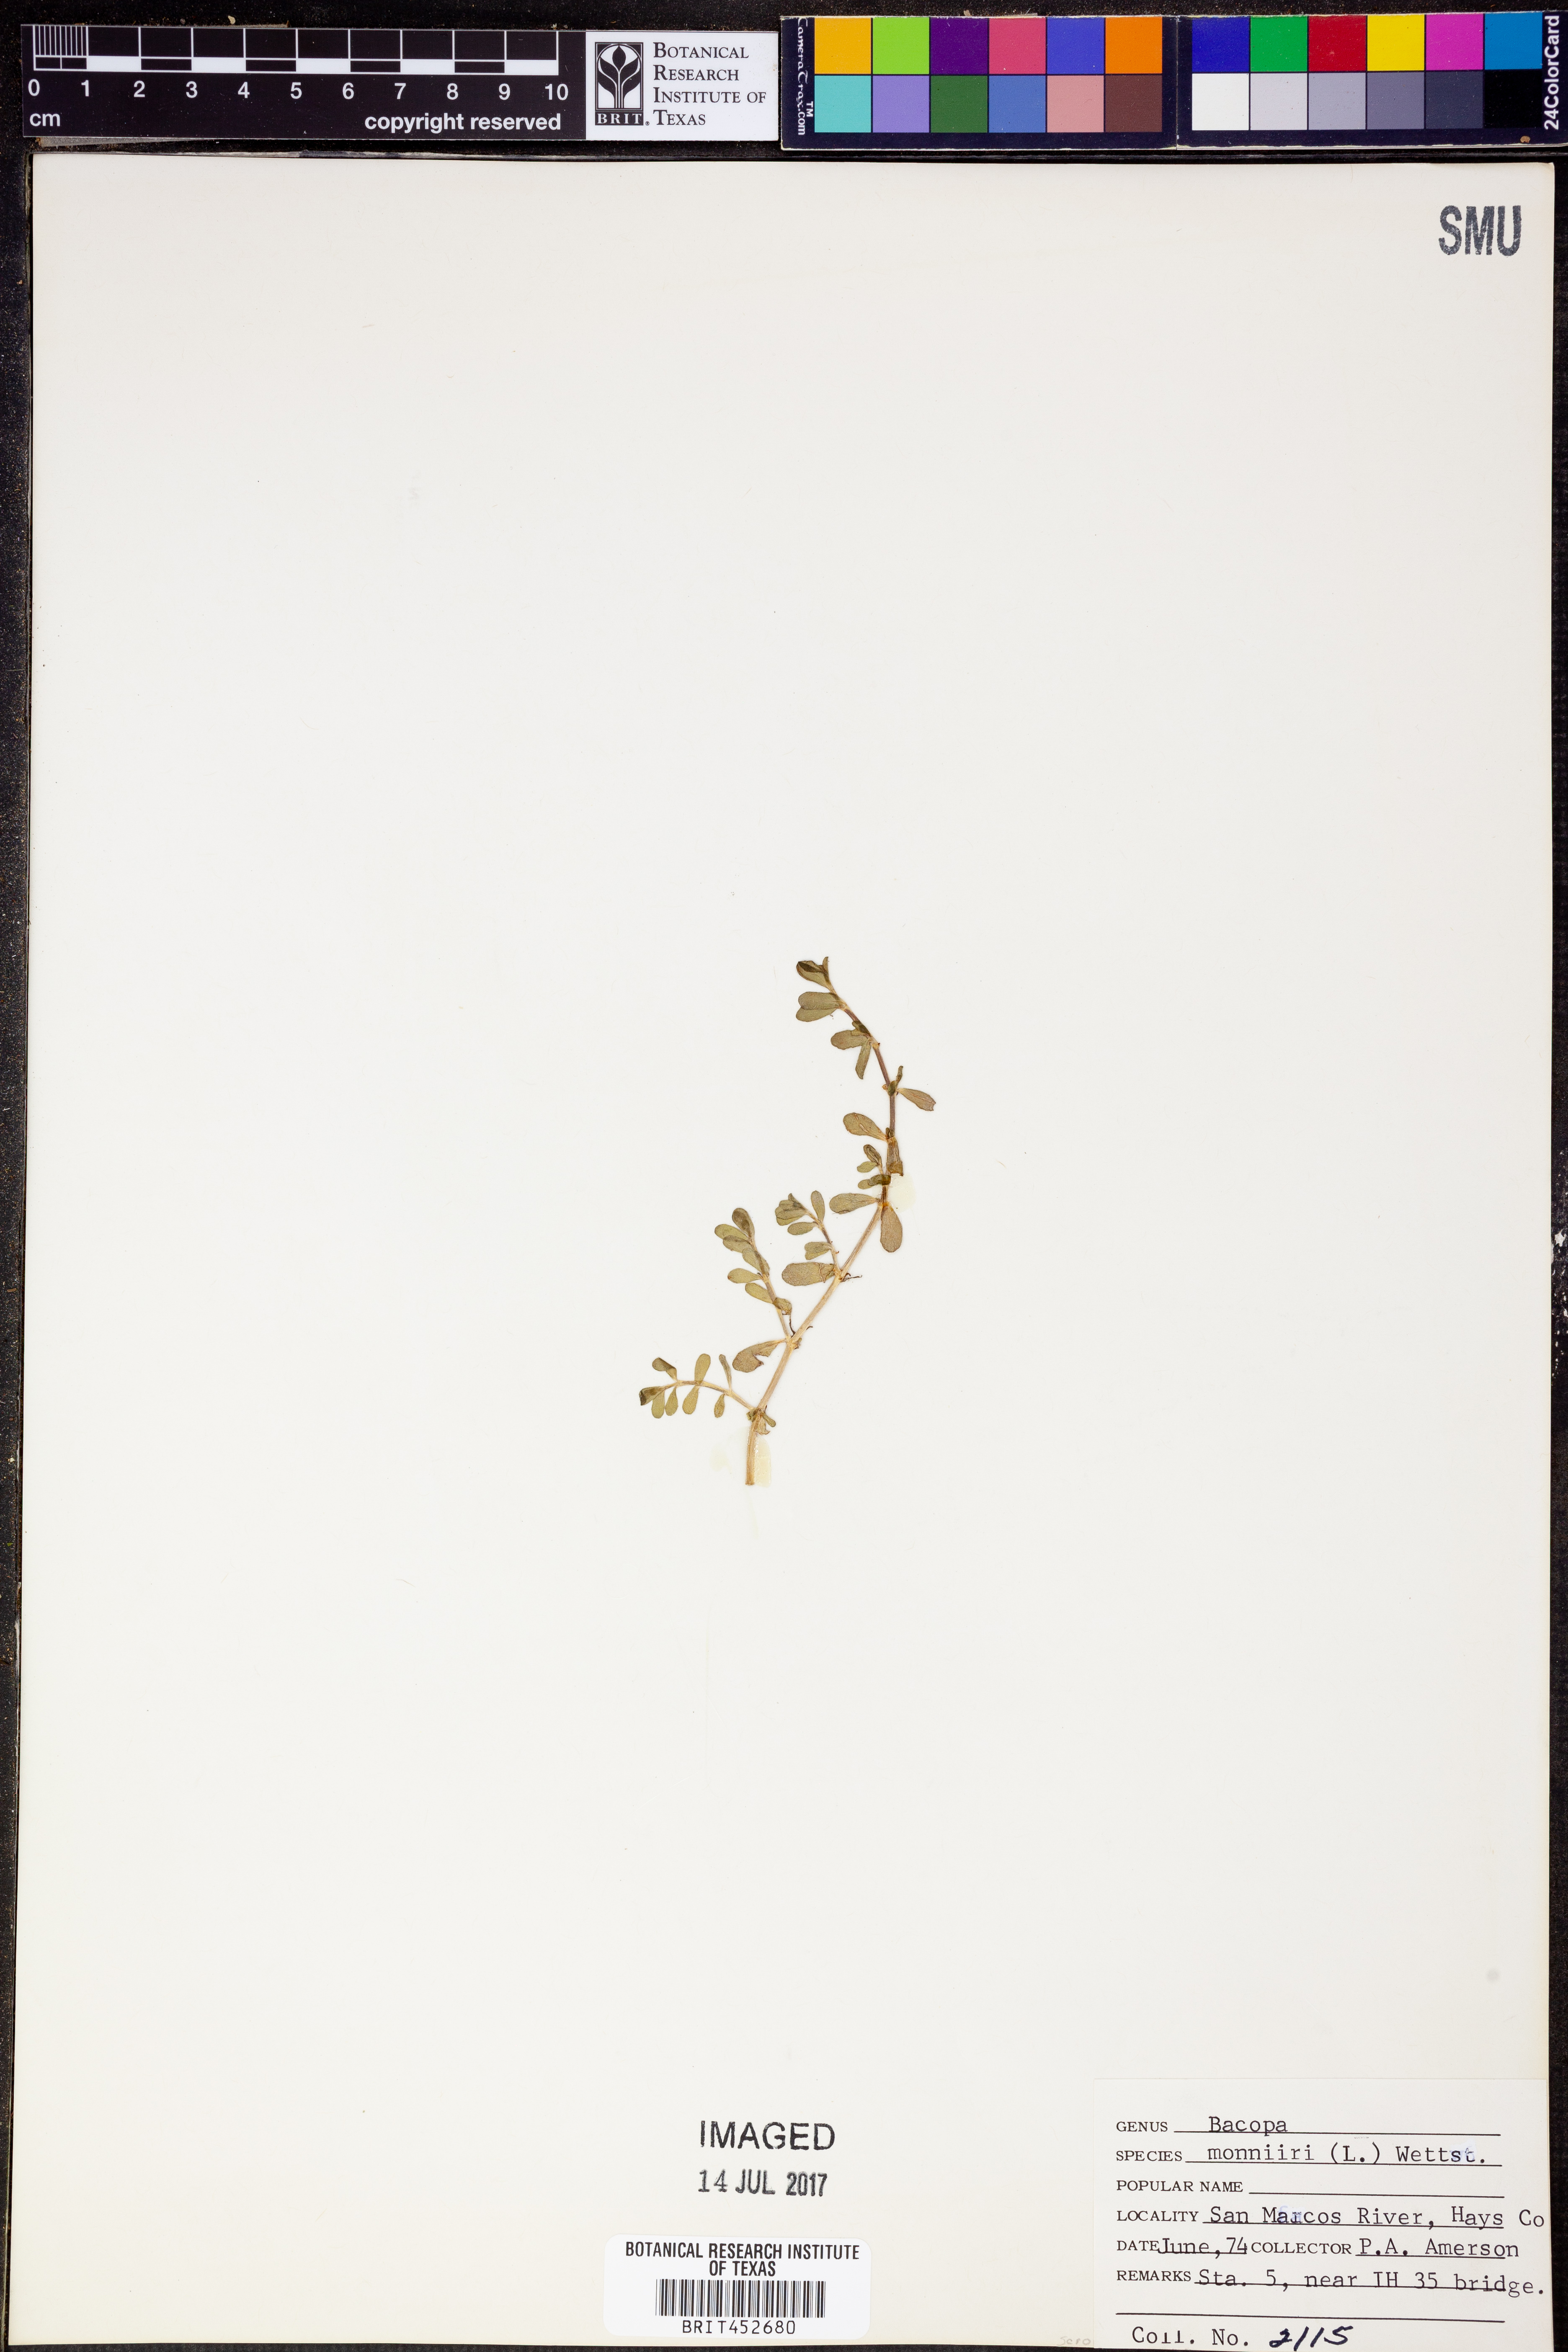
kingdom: Plantae
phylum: Tracheophyta
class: Magnoliopsida
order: Lamiales
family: Plantaginaceae
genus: Bacopa
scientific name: Bacopa monnieri
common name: Indian-pennywort
